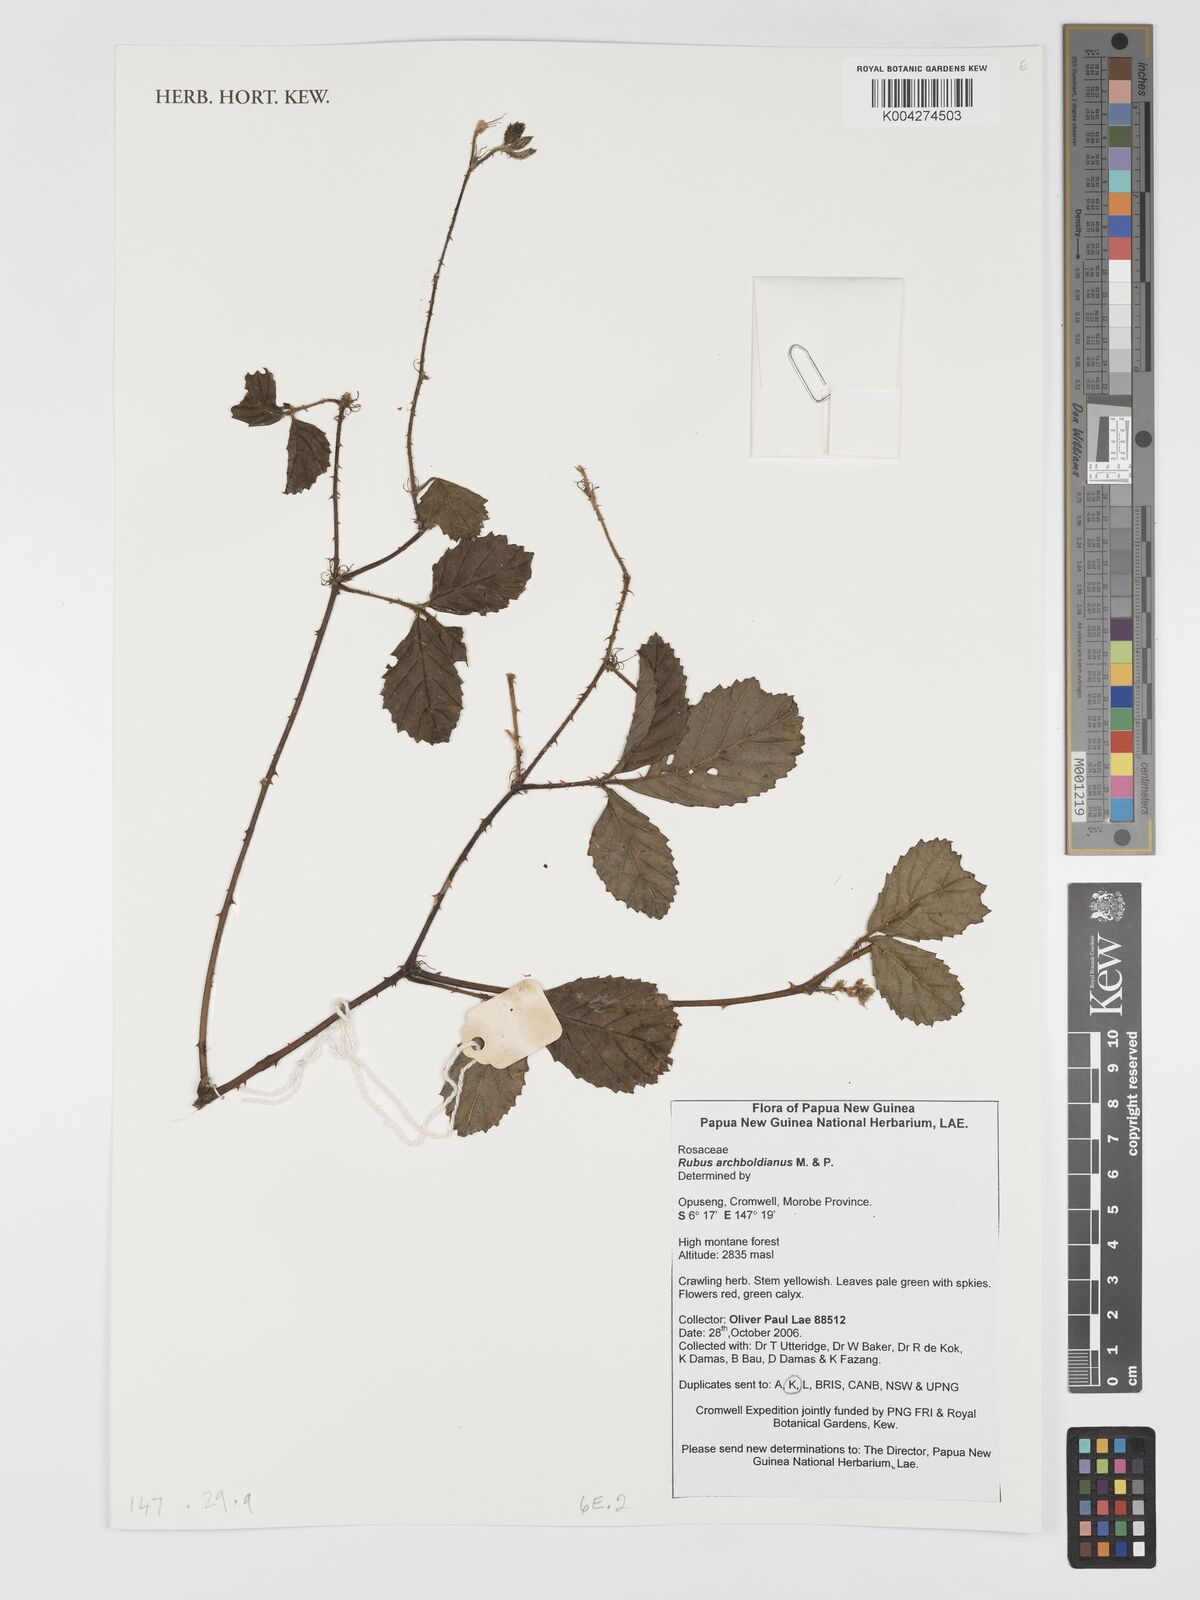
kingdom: Plantae
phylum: Tracheophyta
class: Magnoliopsida
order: Rosales
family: Rosaceae
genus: Rubus
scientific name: Rubus archboldianus
